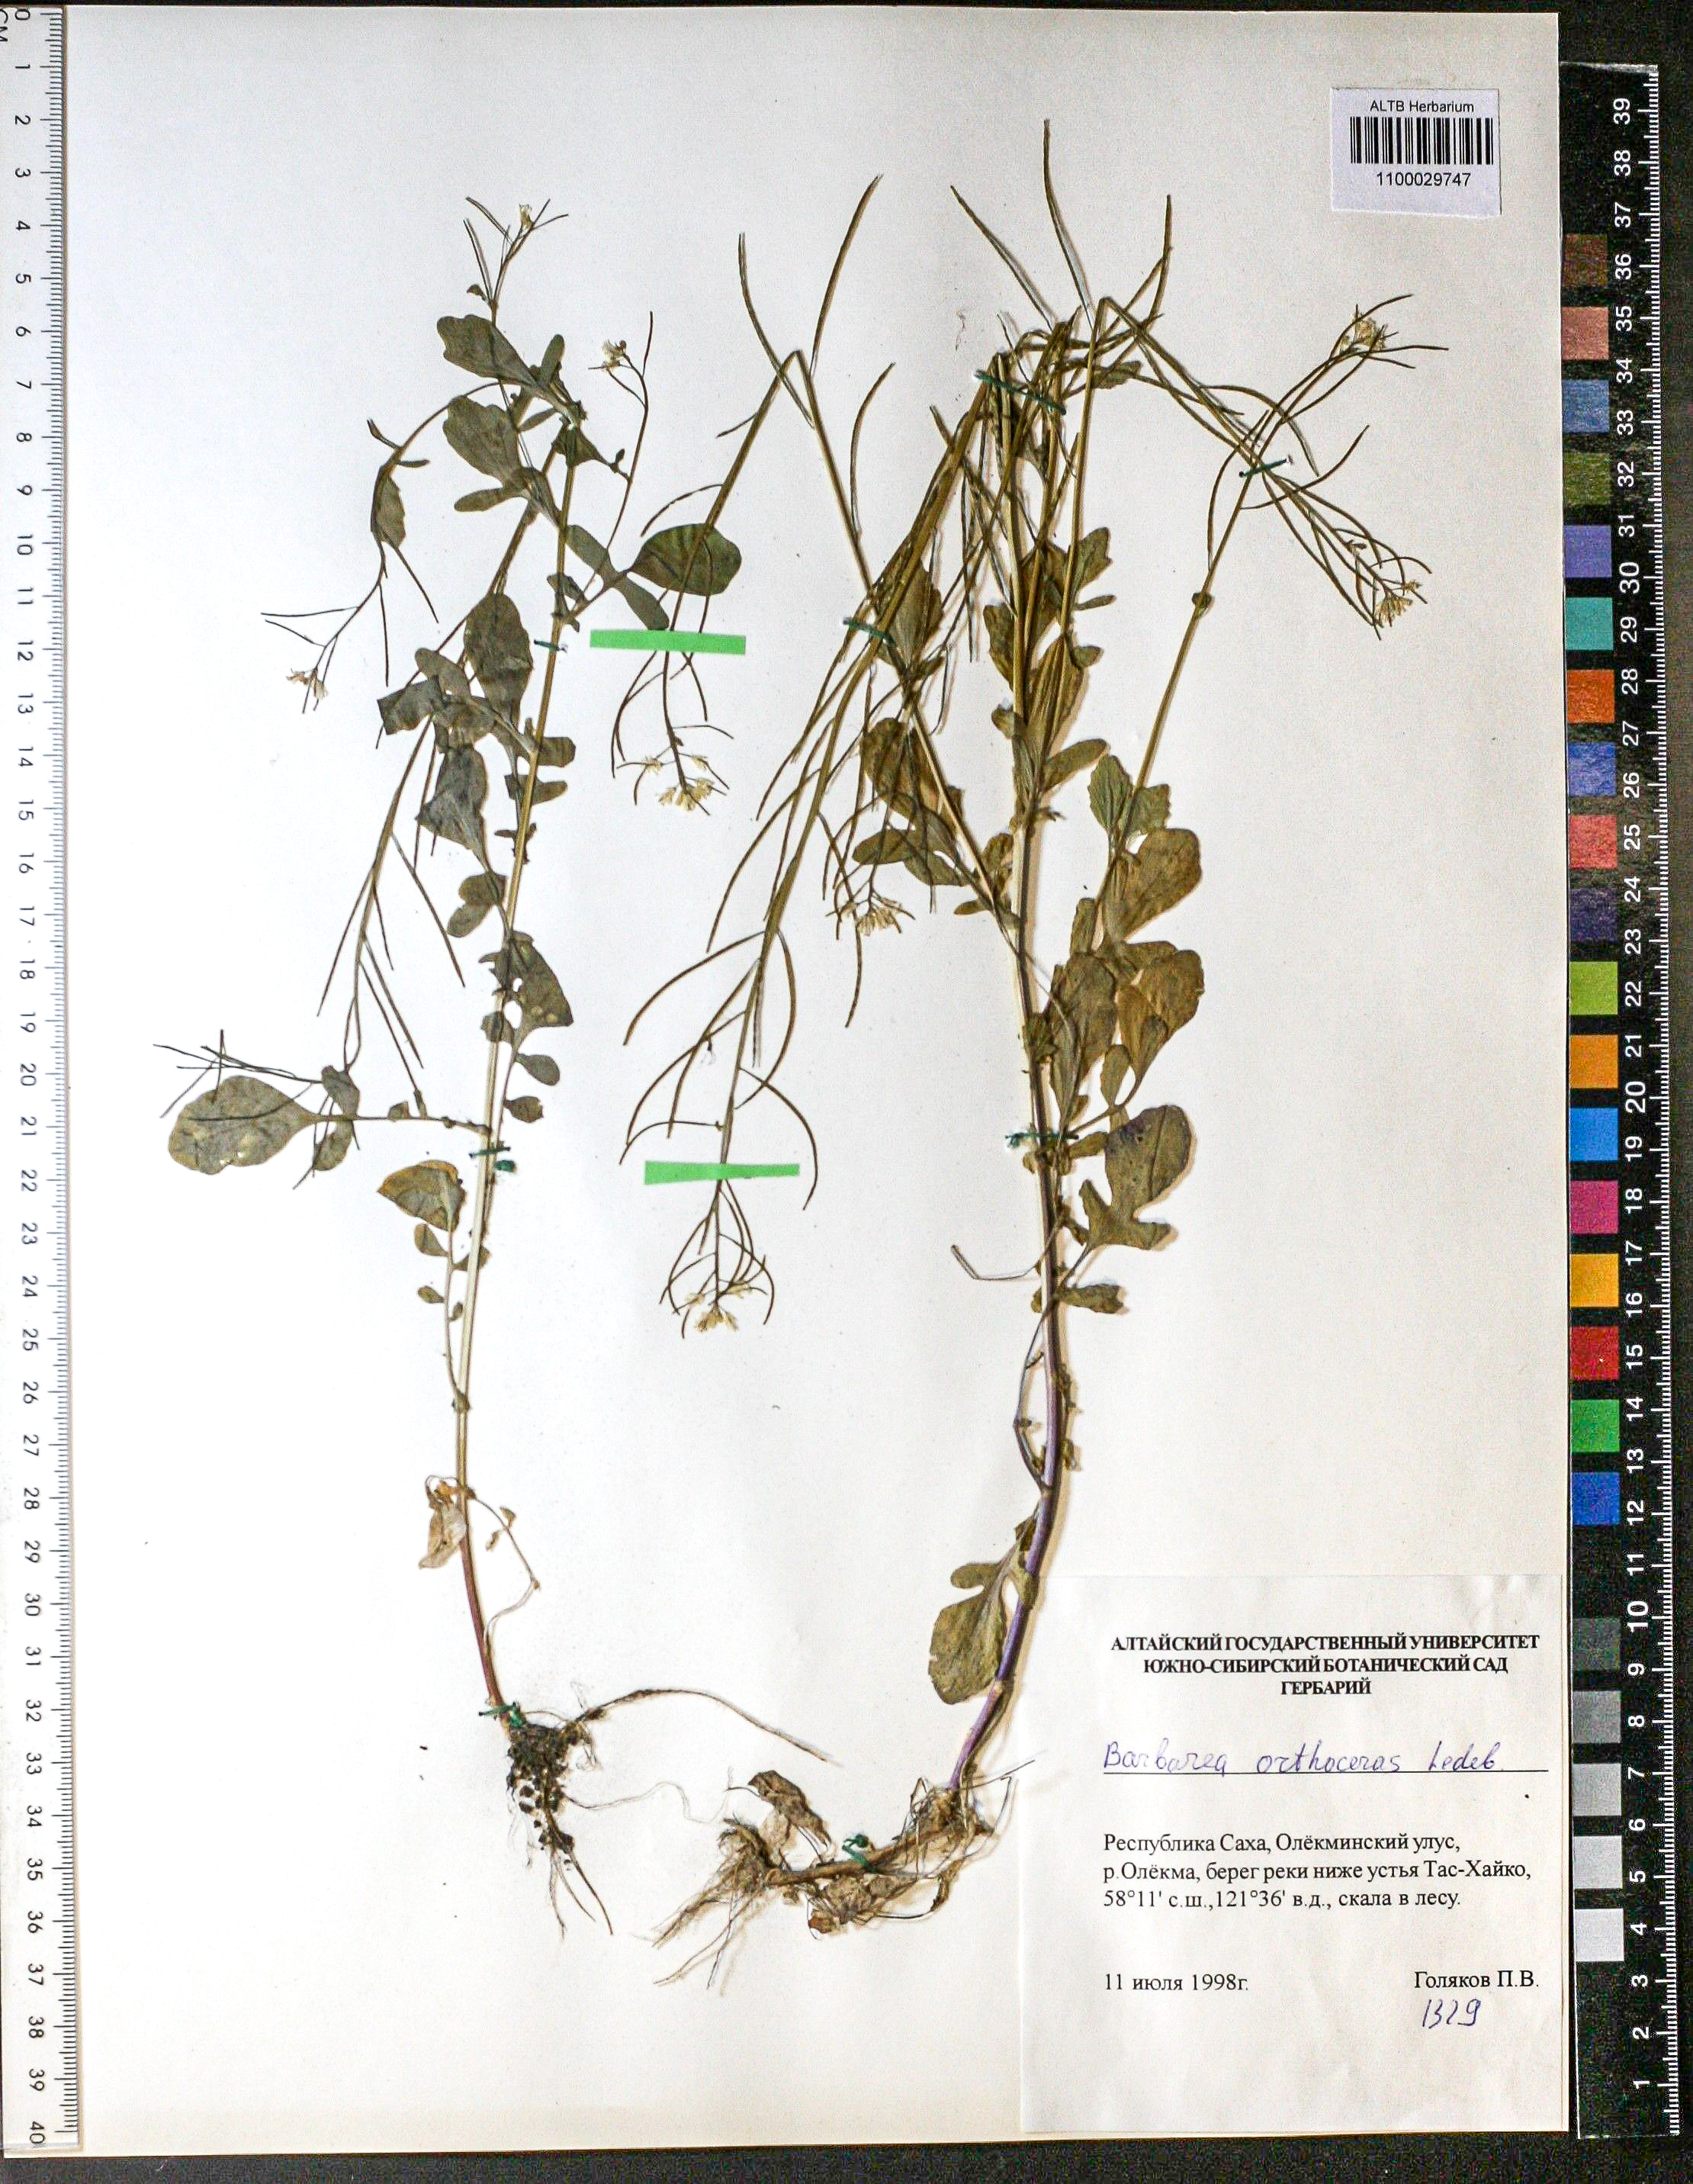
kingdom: Plantae
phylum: Tracheophyta
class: Magnoliopsida
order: Brassicales
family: Brassicaceae
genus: Barbarea
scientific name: Barbarea orthoceras
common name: American wintercress
